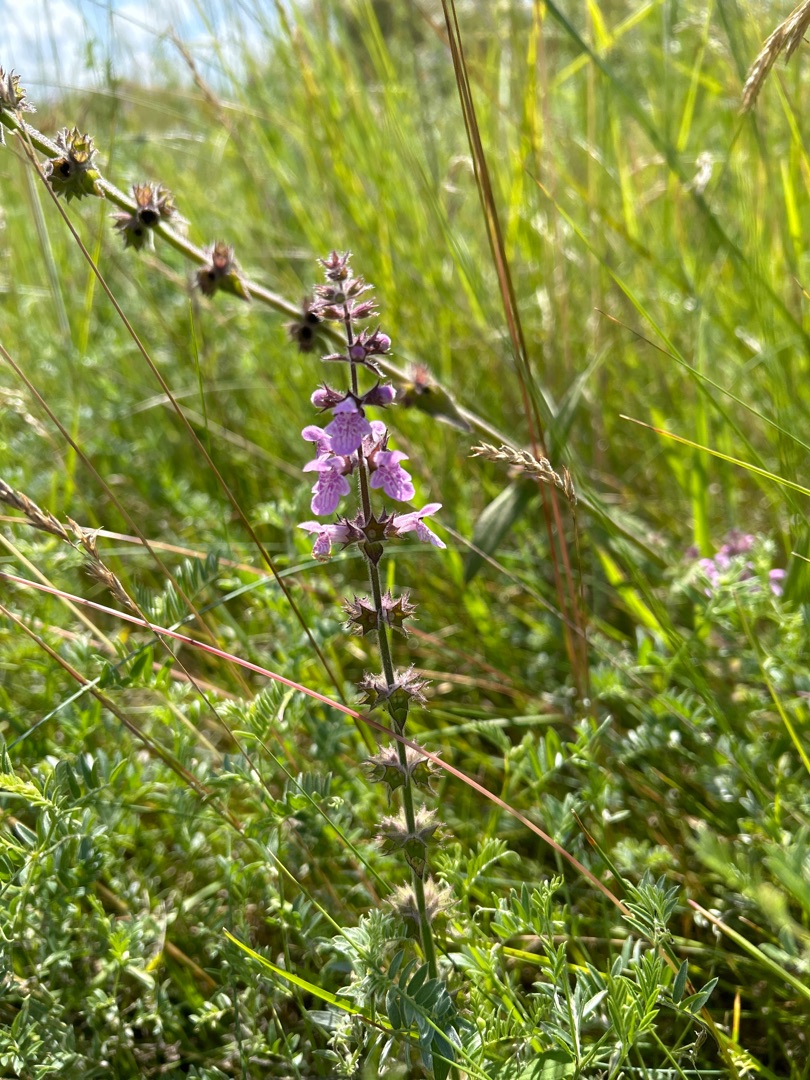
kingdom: Plantae
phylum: Tracheophyta
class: Magnoliopsida
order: Lamiales
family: Lamiaceae
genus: Stachys
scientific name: Stachys palustris
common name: Kær-galtetand
